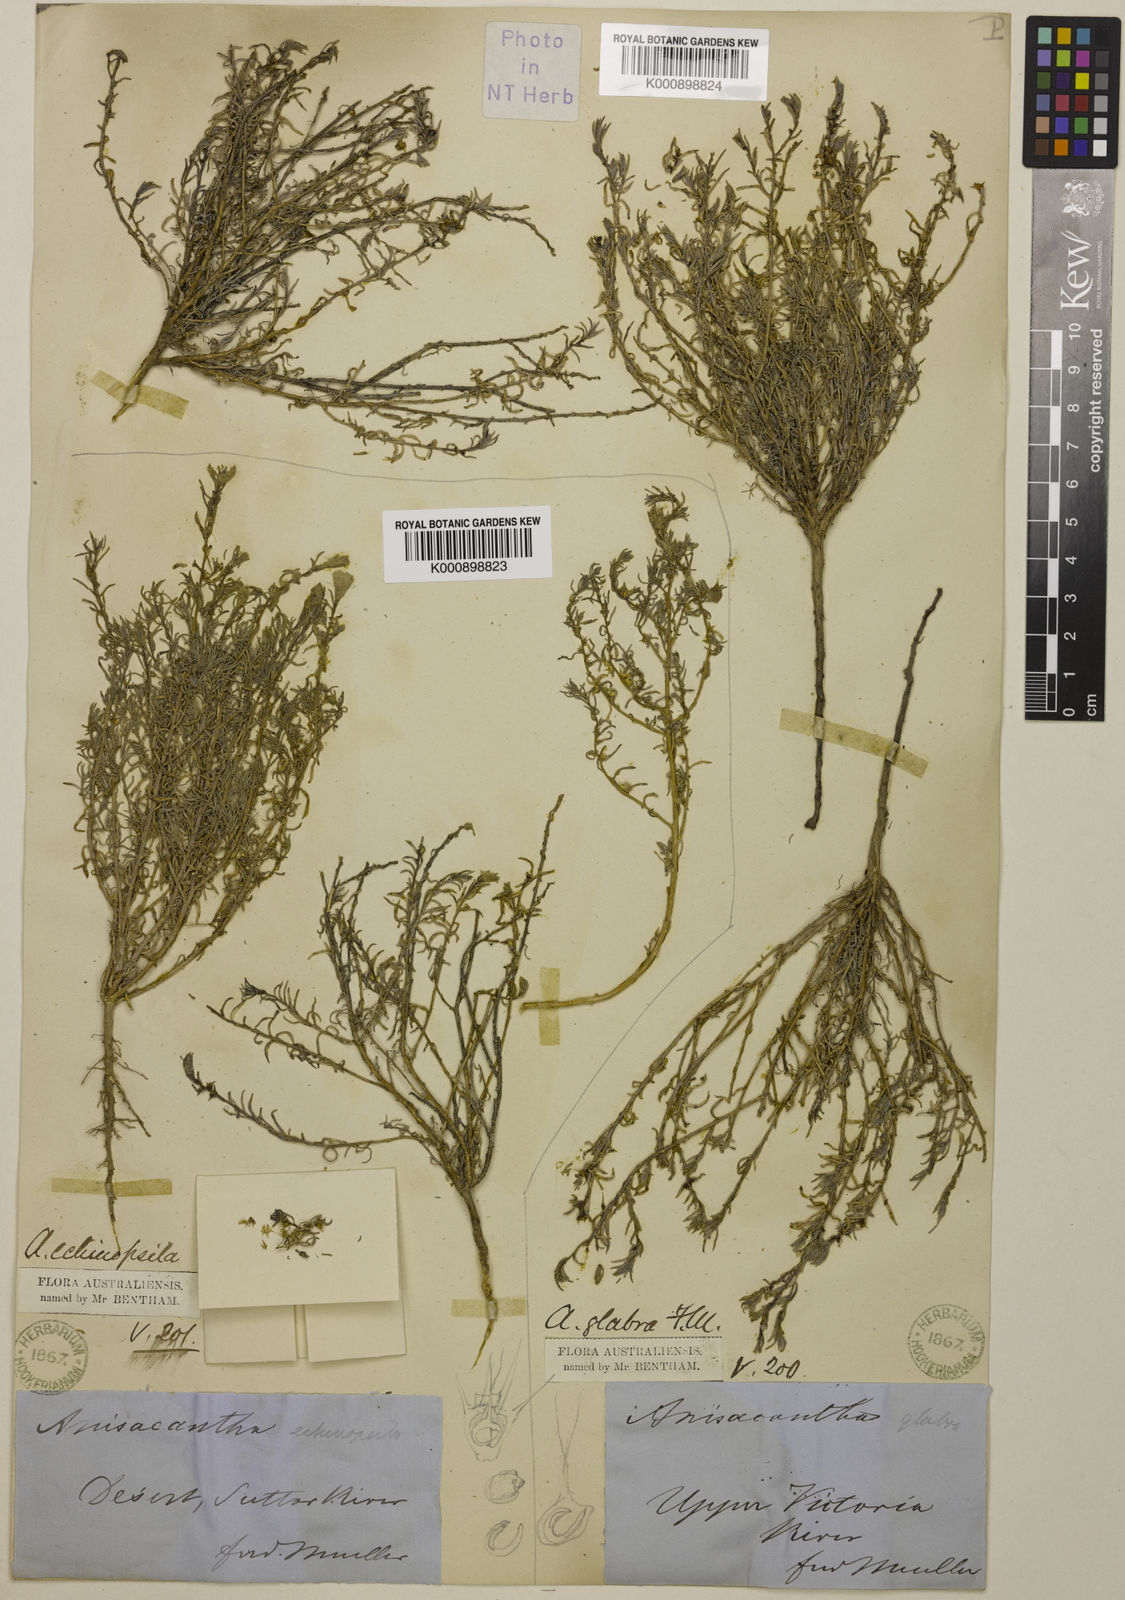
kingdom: Plantae
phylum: Tracheophyta
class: Magnoliopsida
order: Caryophyllales
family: Amaranthaceae
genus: Sclerolaena
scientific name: Sclerolaena anisacanthoides
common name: Yellowbur
